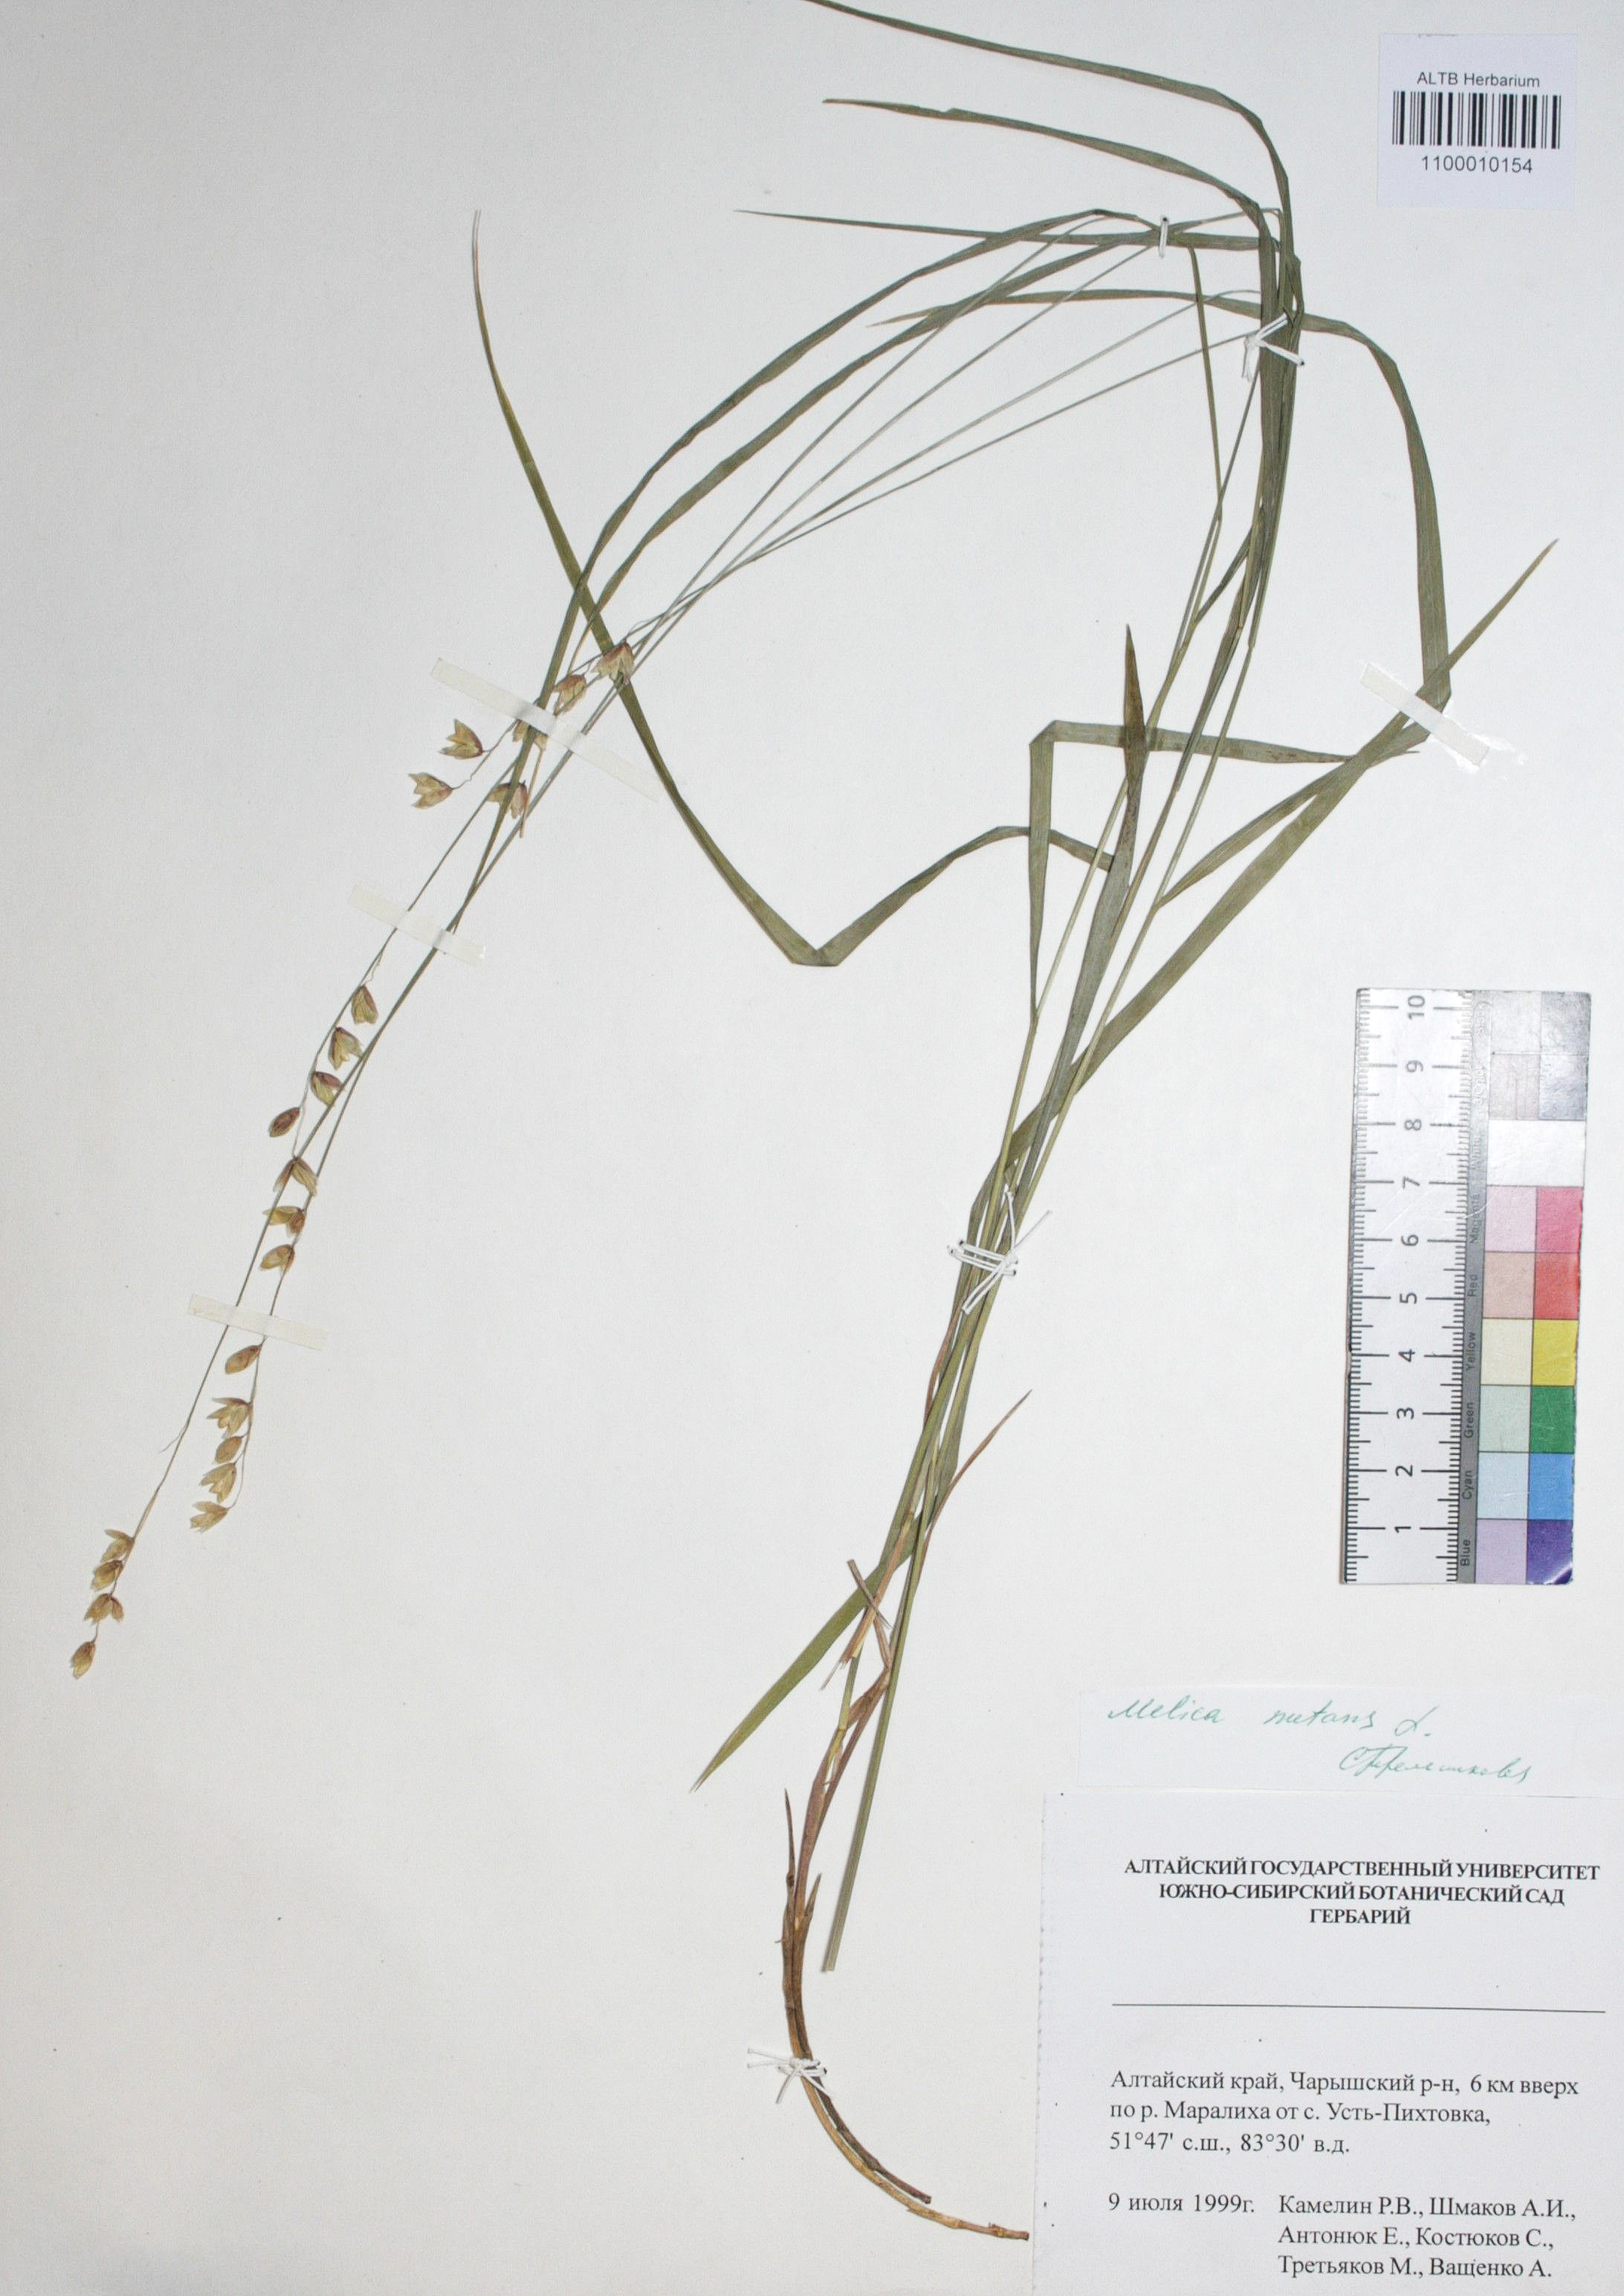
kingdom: Plantae
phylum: Tracheophyta
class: Liliopsida
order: Poales
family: Poaceae
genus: Melica
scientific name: Melica nutans
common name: Mountain melick
